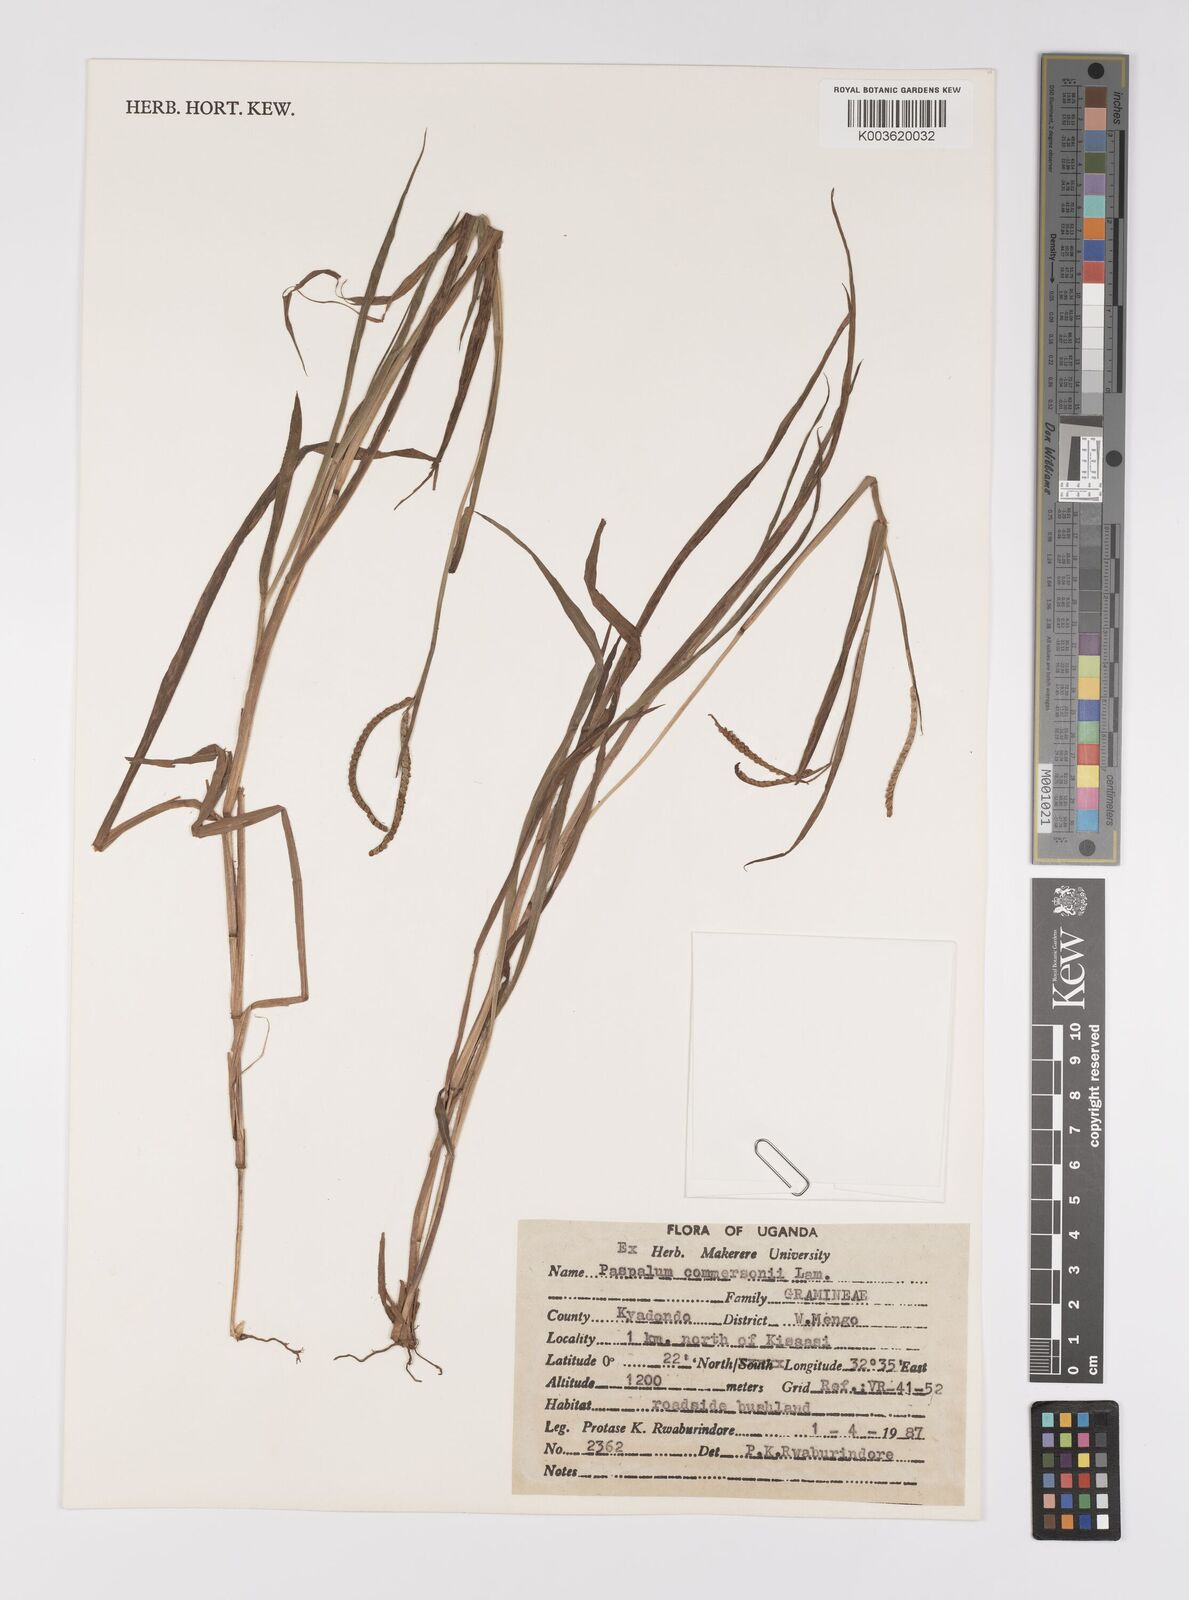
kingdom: Plantae
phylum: Tracheophyta
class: Liliopsida
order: Poales
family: Poaceae
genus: Paspalum
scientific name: Paspalum scrobiculatum
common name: Kodo millet
